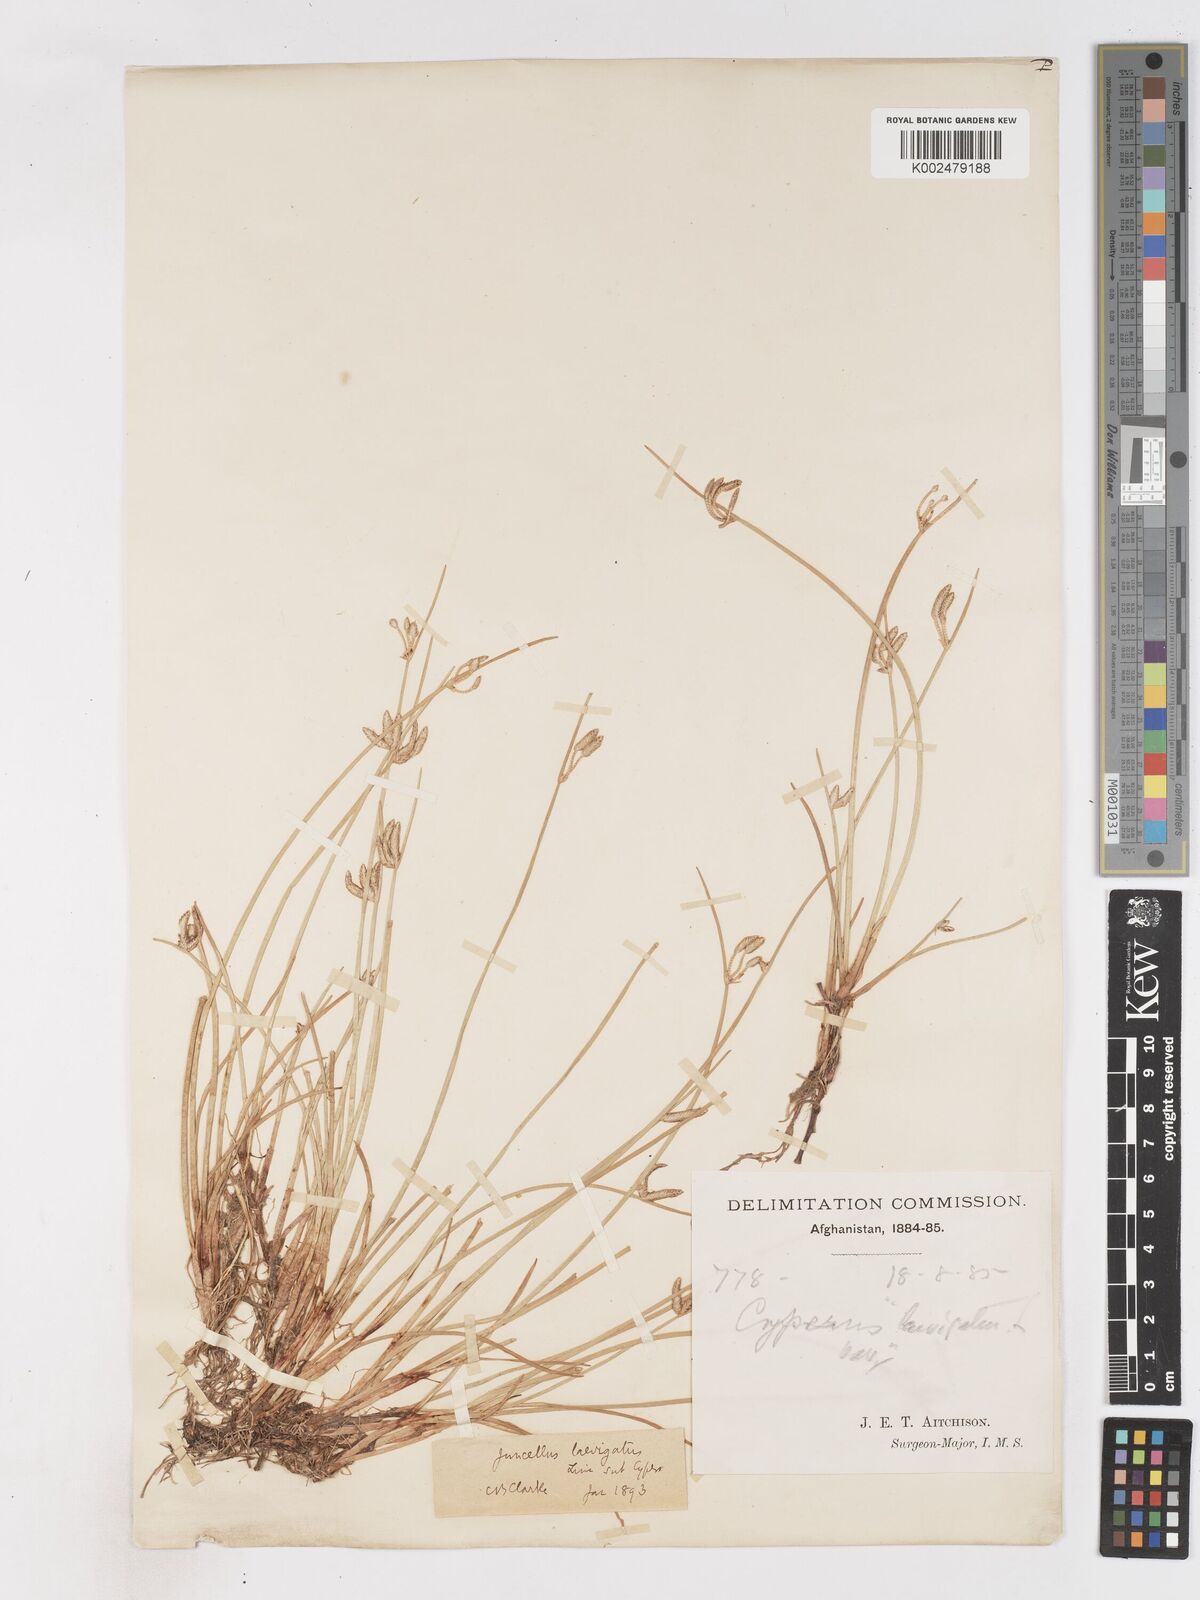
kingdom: Plantae
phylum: Tracheophyta
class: Liliopsida
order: Poales
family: Cyperaceae
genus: Cyperus
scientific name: Cyperus laevigatus
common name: Smooth flat sedge
